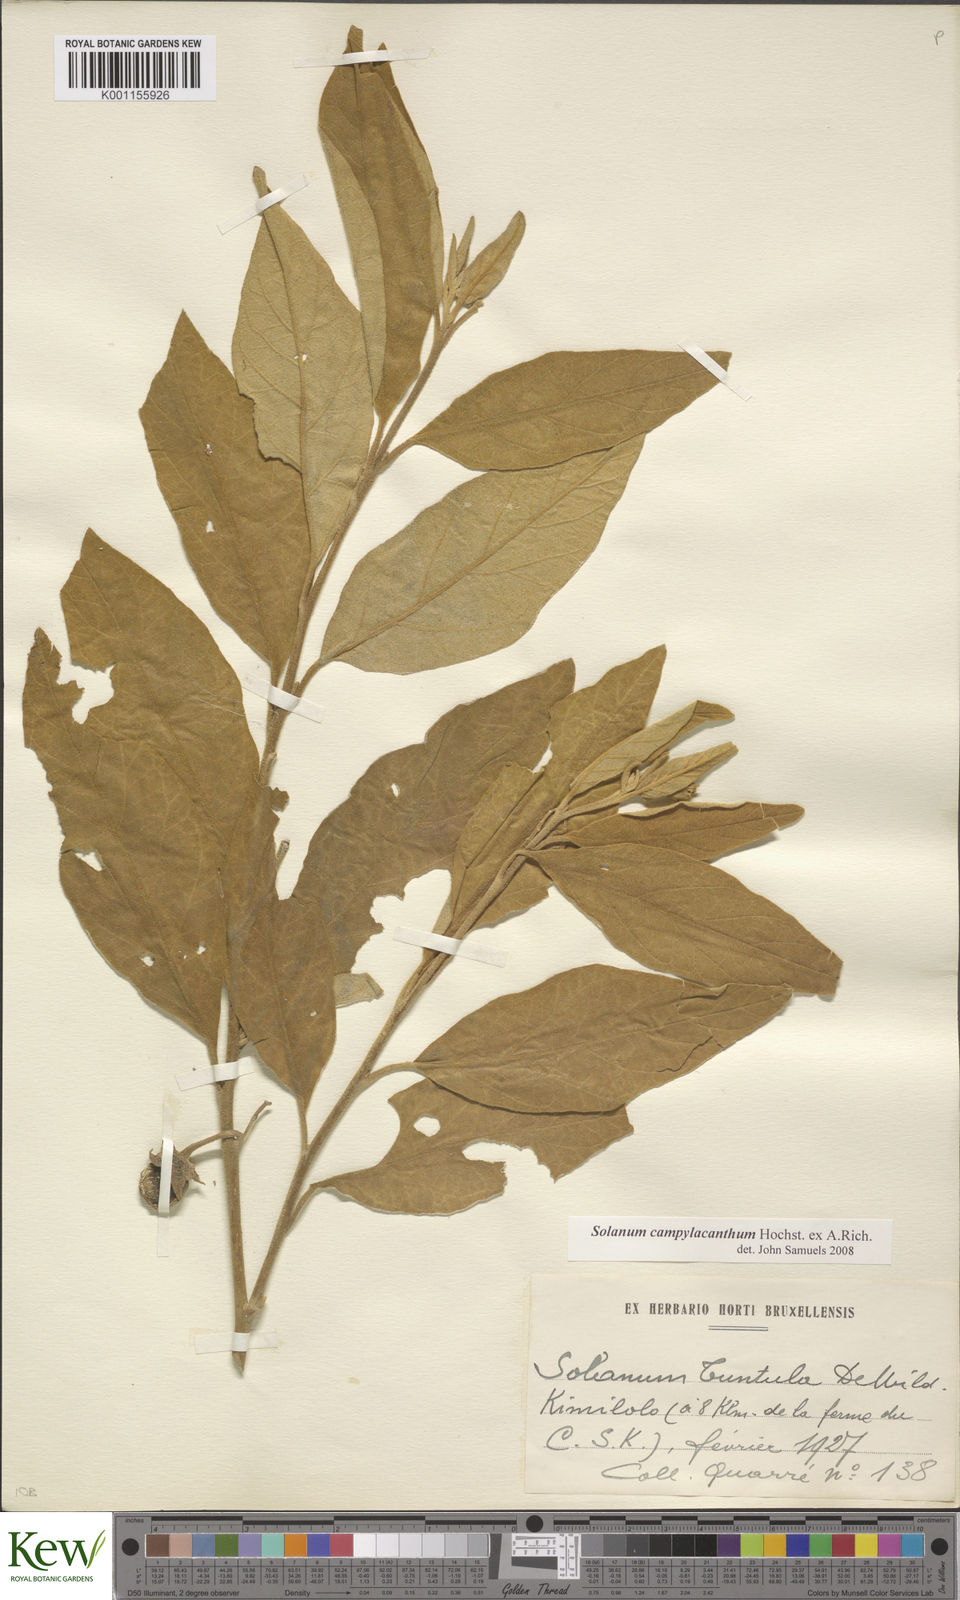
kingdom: Plantae
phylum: Tracheophyta
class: Magnoliopsida
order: Solanales
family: Solanaceae
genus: Solanum
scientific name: Solanum campylacanthum
